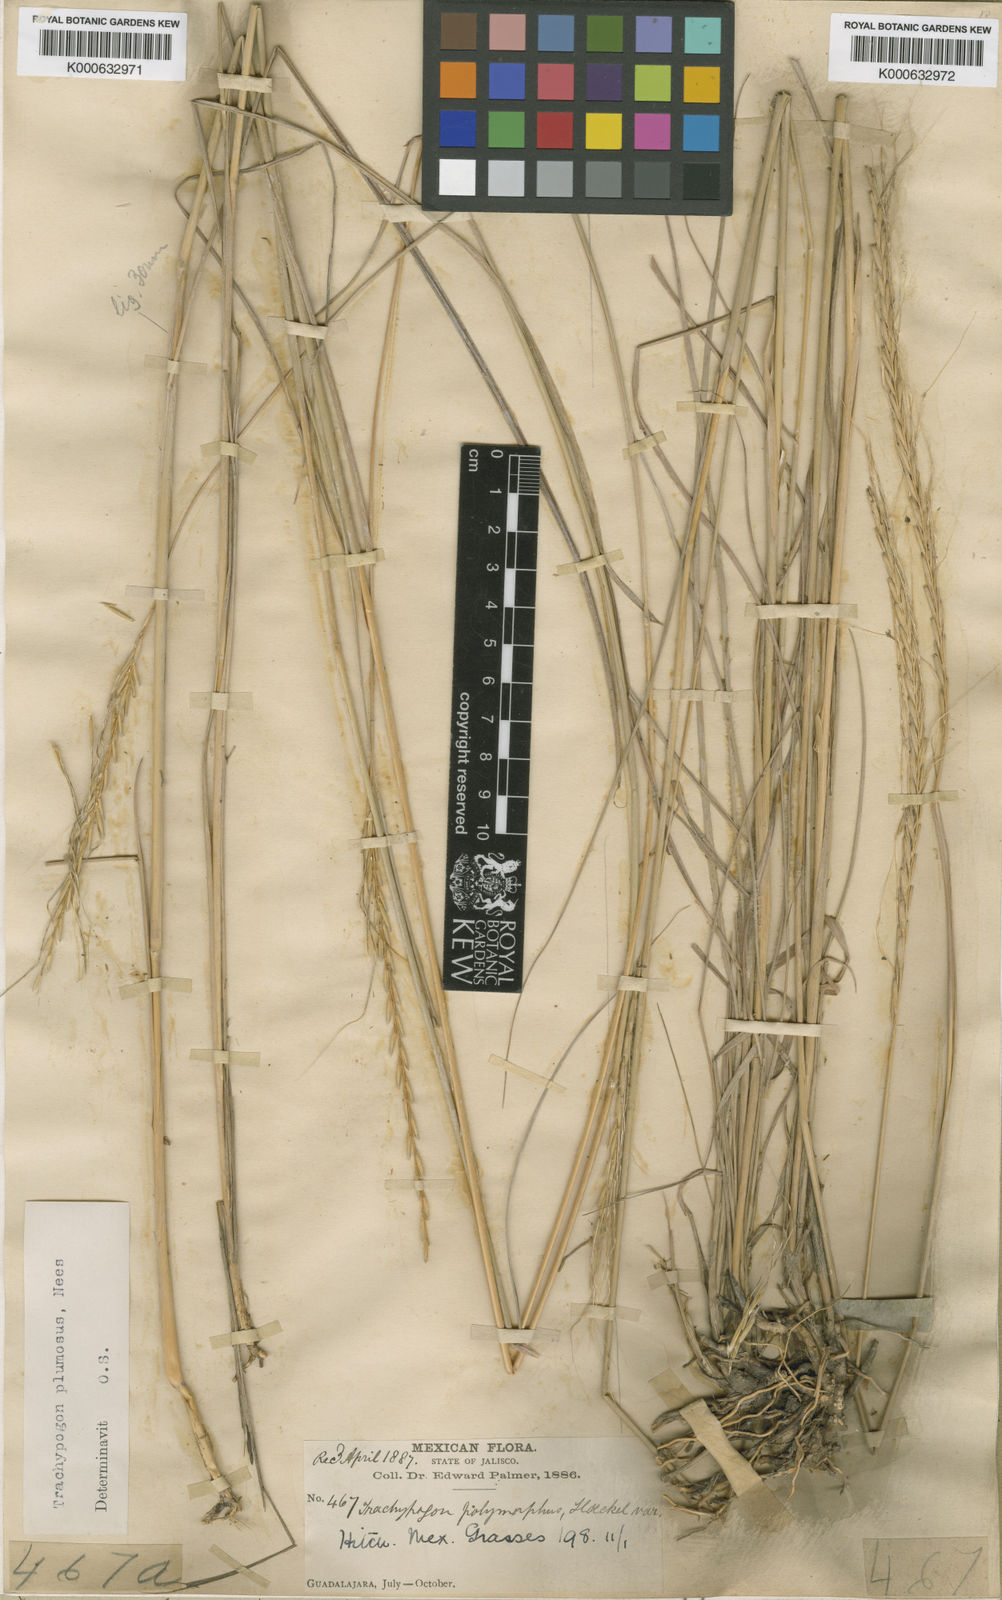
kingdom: Plantae
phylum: Tracheophyta
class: Liliopsida
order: Poales
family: Poaceae
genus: Trachypogon
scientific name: Trachypogon spicatus
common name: Crinkle-awn
